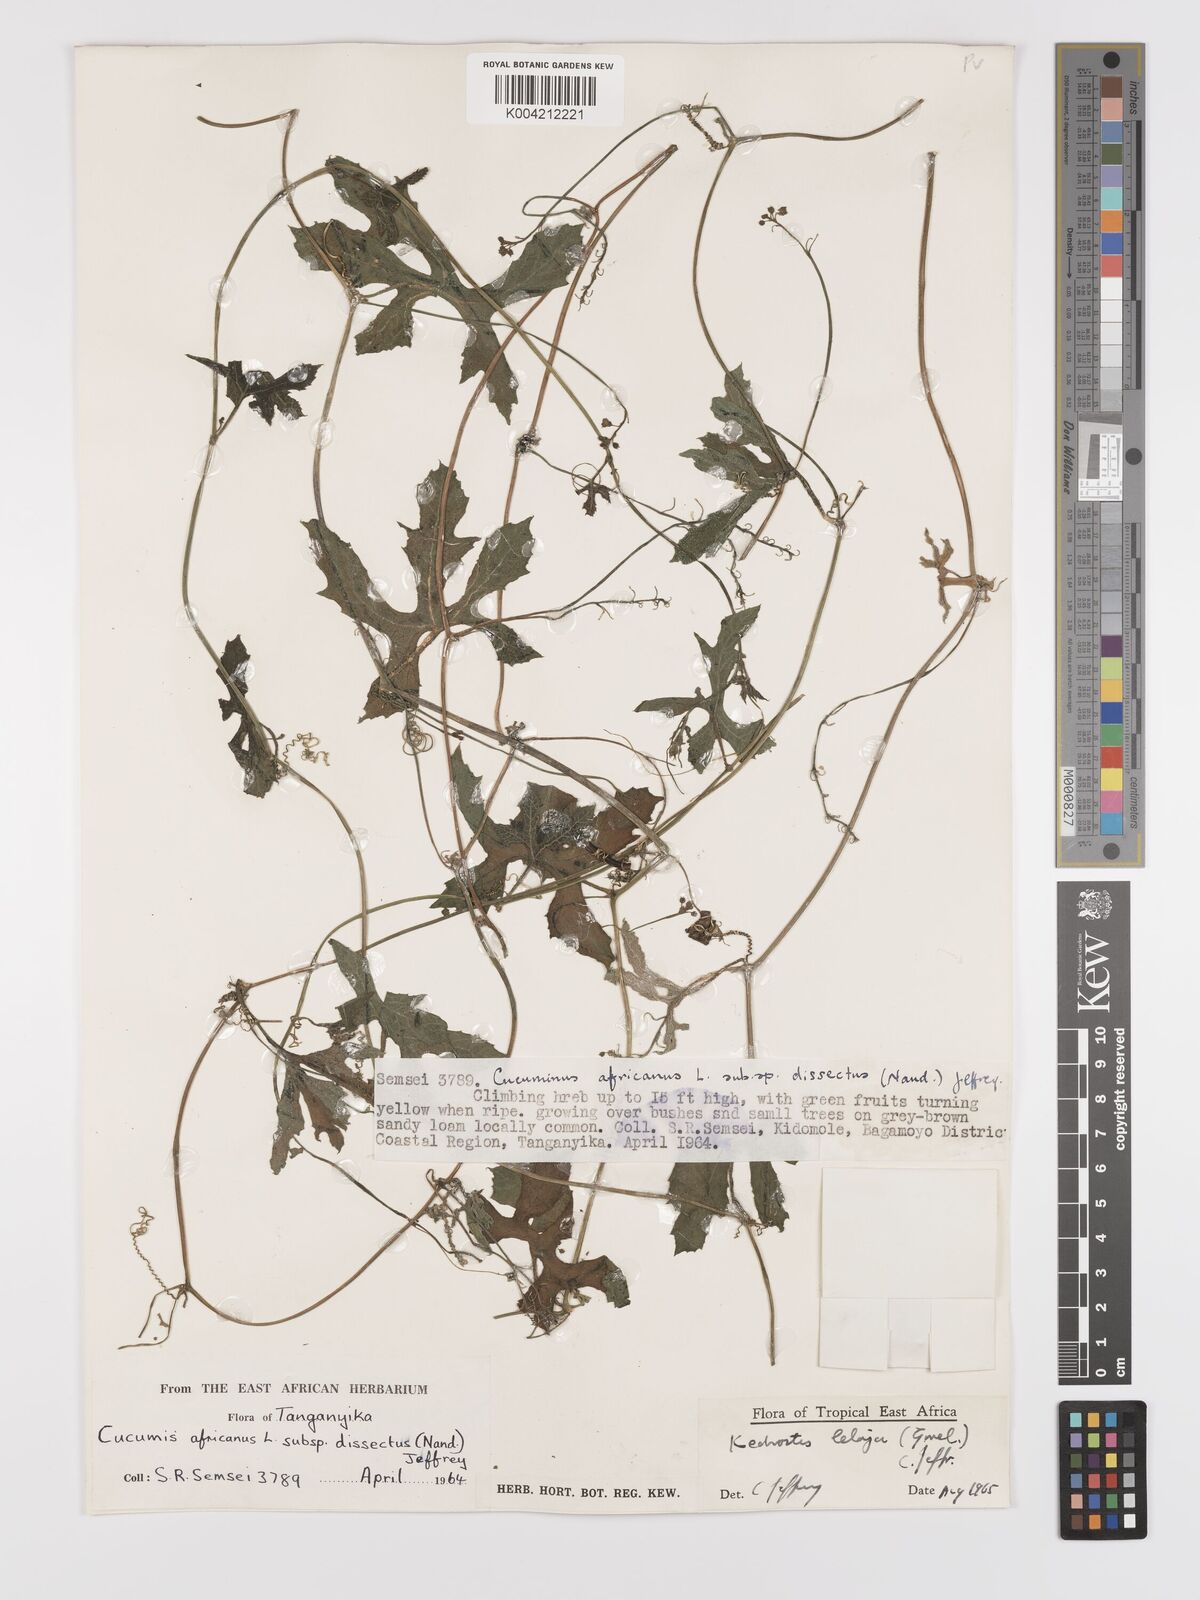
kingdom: Plantae
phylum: Tracheophyta
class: Magnoliopsida
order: Cucurbitales
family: Cucurbitaceae
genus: Kedrostis
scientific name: Kedrostis abdallae
